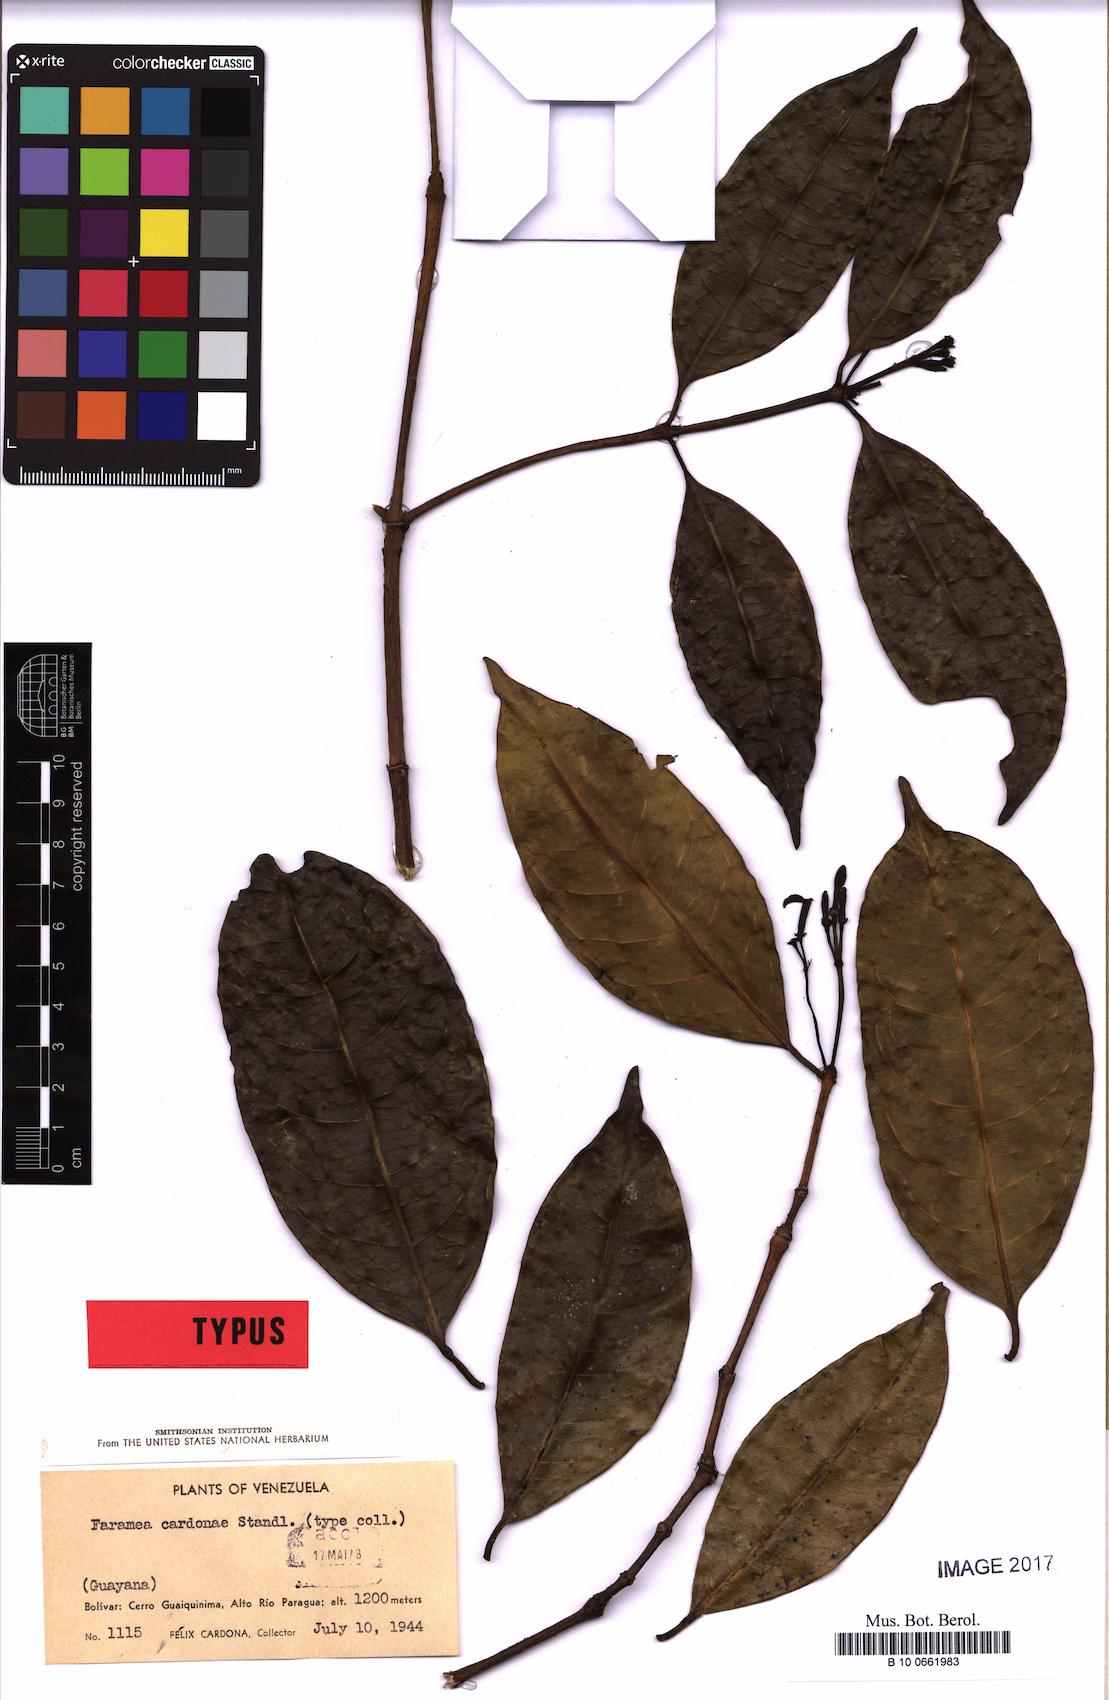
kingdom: Plantae
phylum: Tracheophyta
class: Magnoliopsida
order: Gentianales
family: Rubiaceae
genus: Faramea
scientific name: Faramea cardonae
